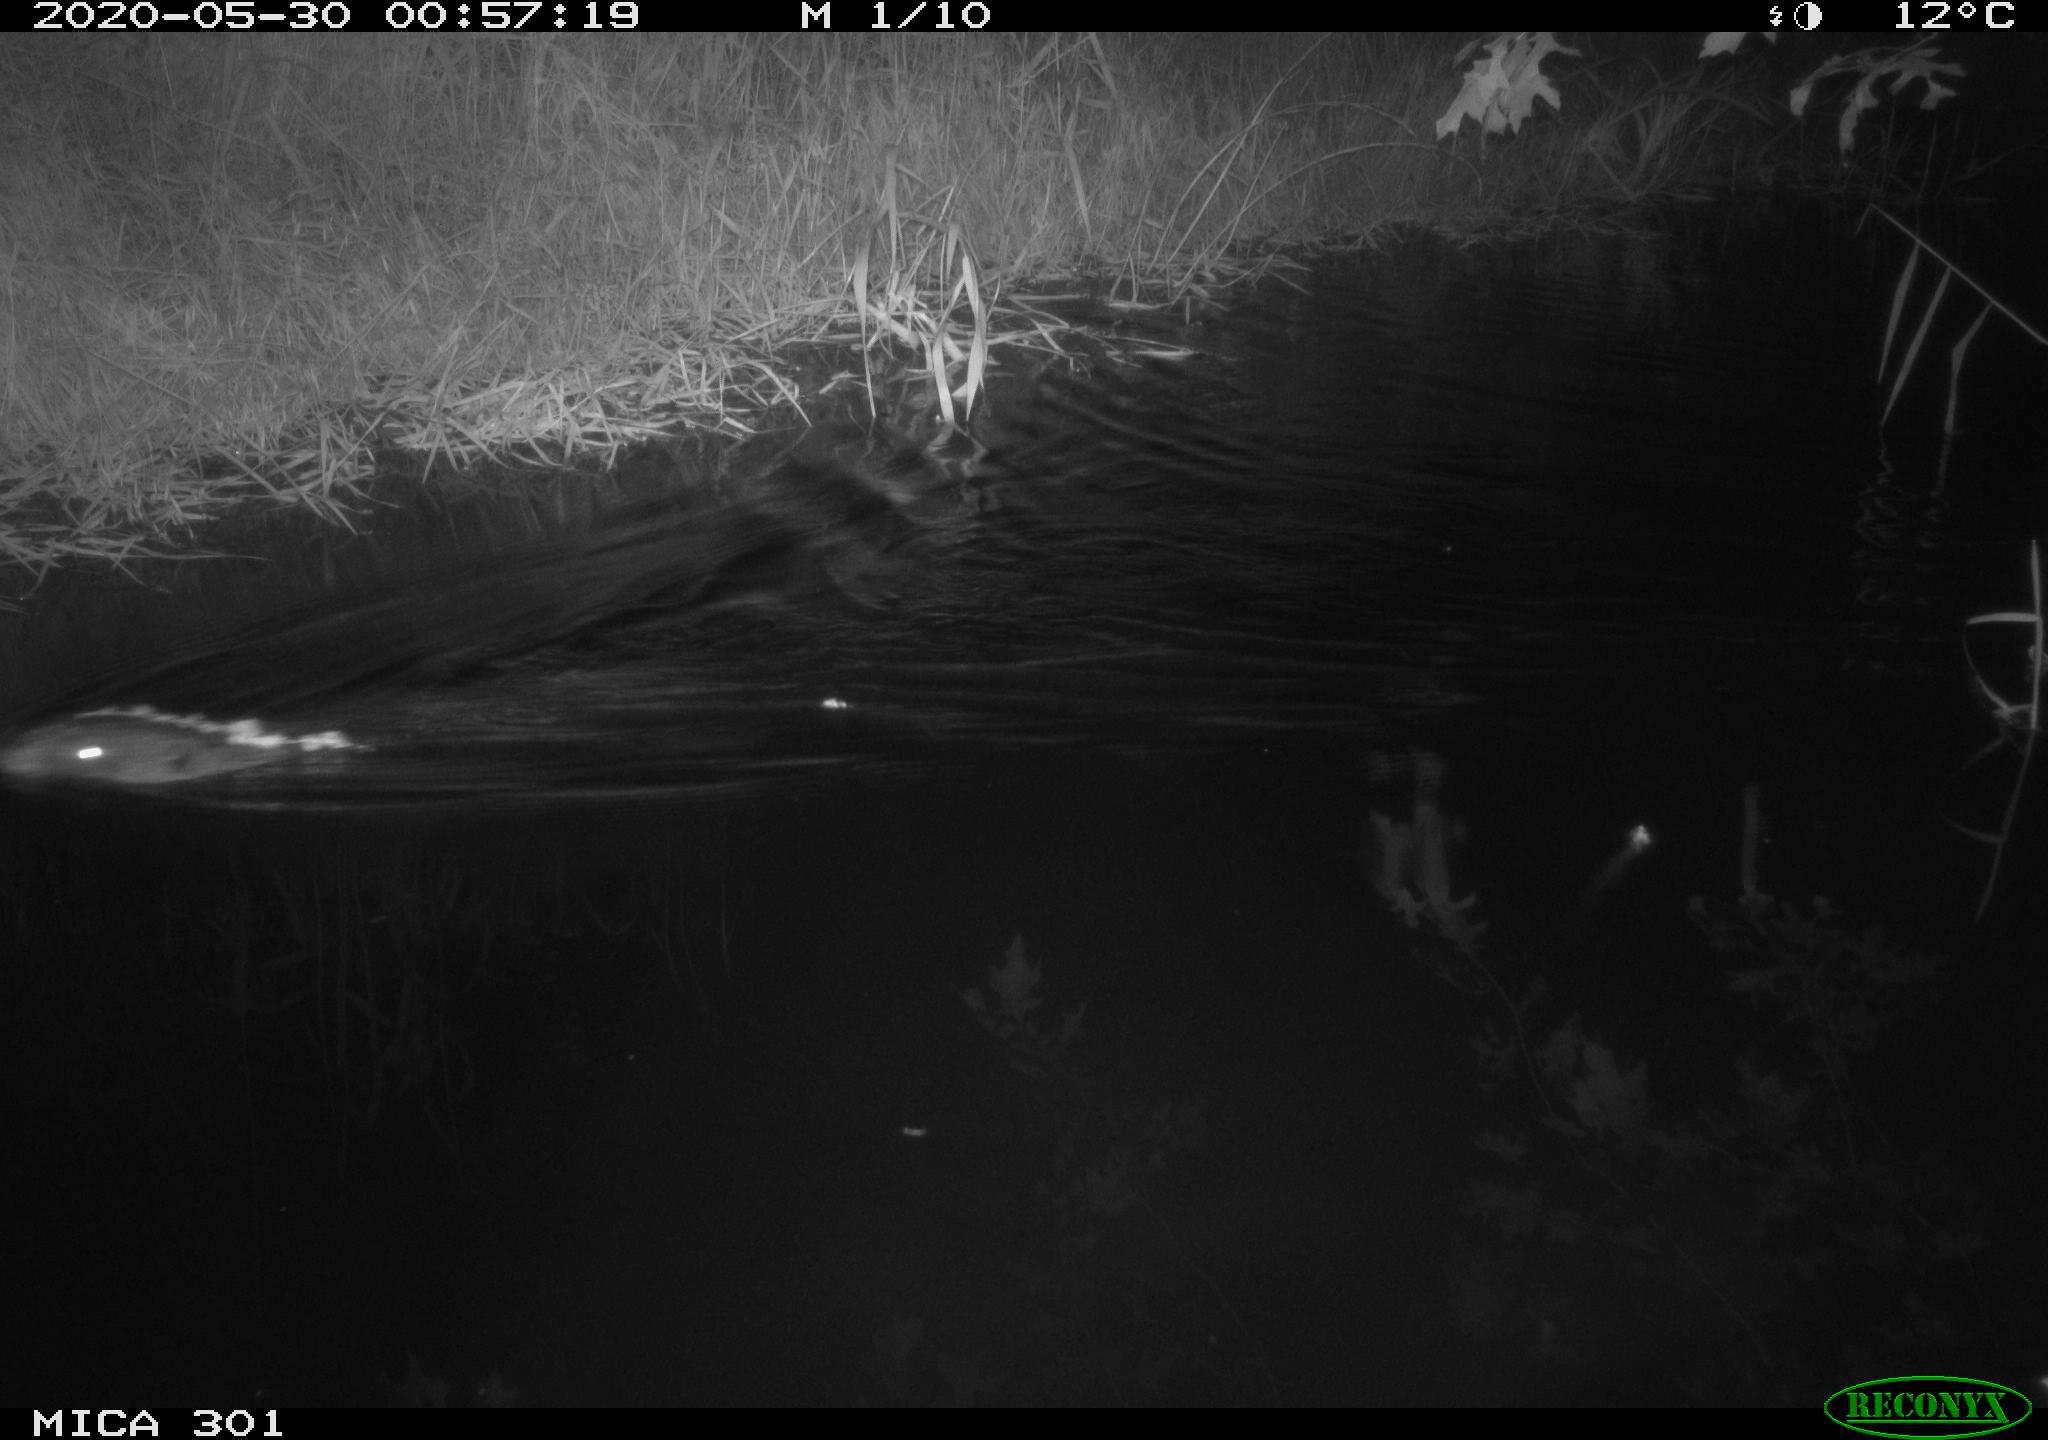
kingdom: Animalia
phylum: Chordata
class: Mammalia
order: Rodentia
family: Castoridae
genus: Castor
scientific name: Castor fiber
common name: Eurasian beaver
